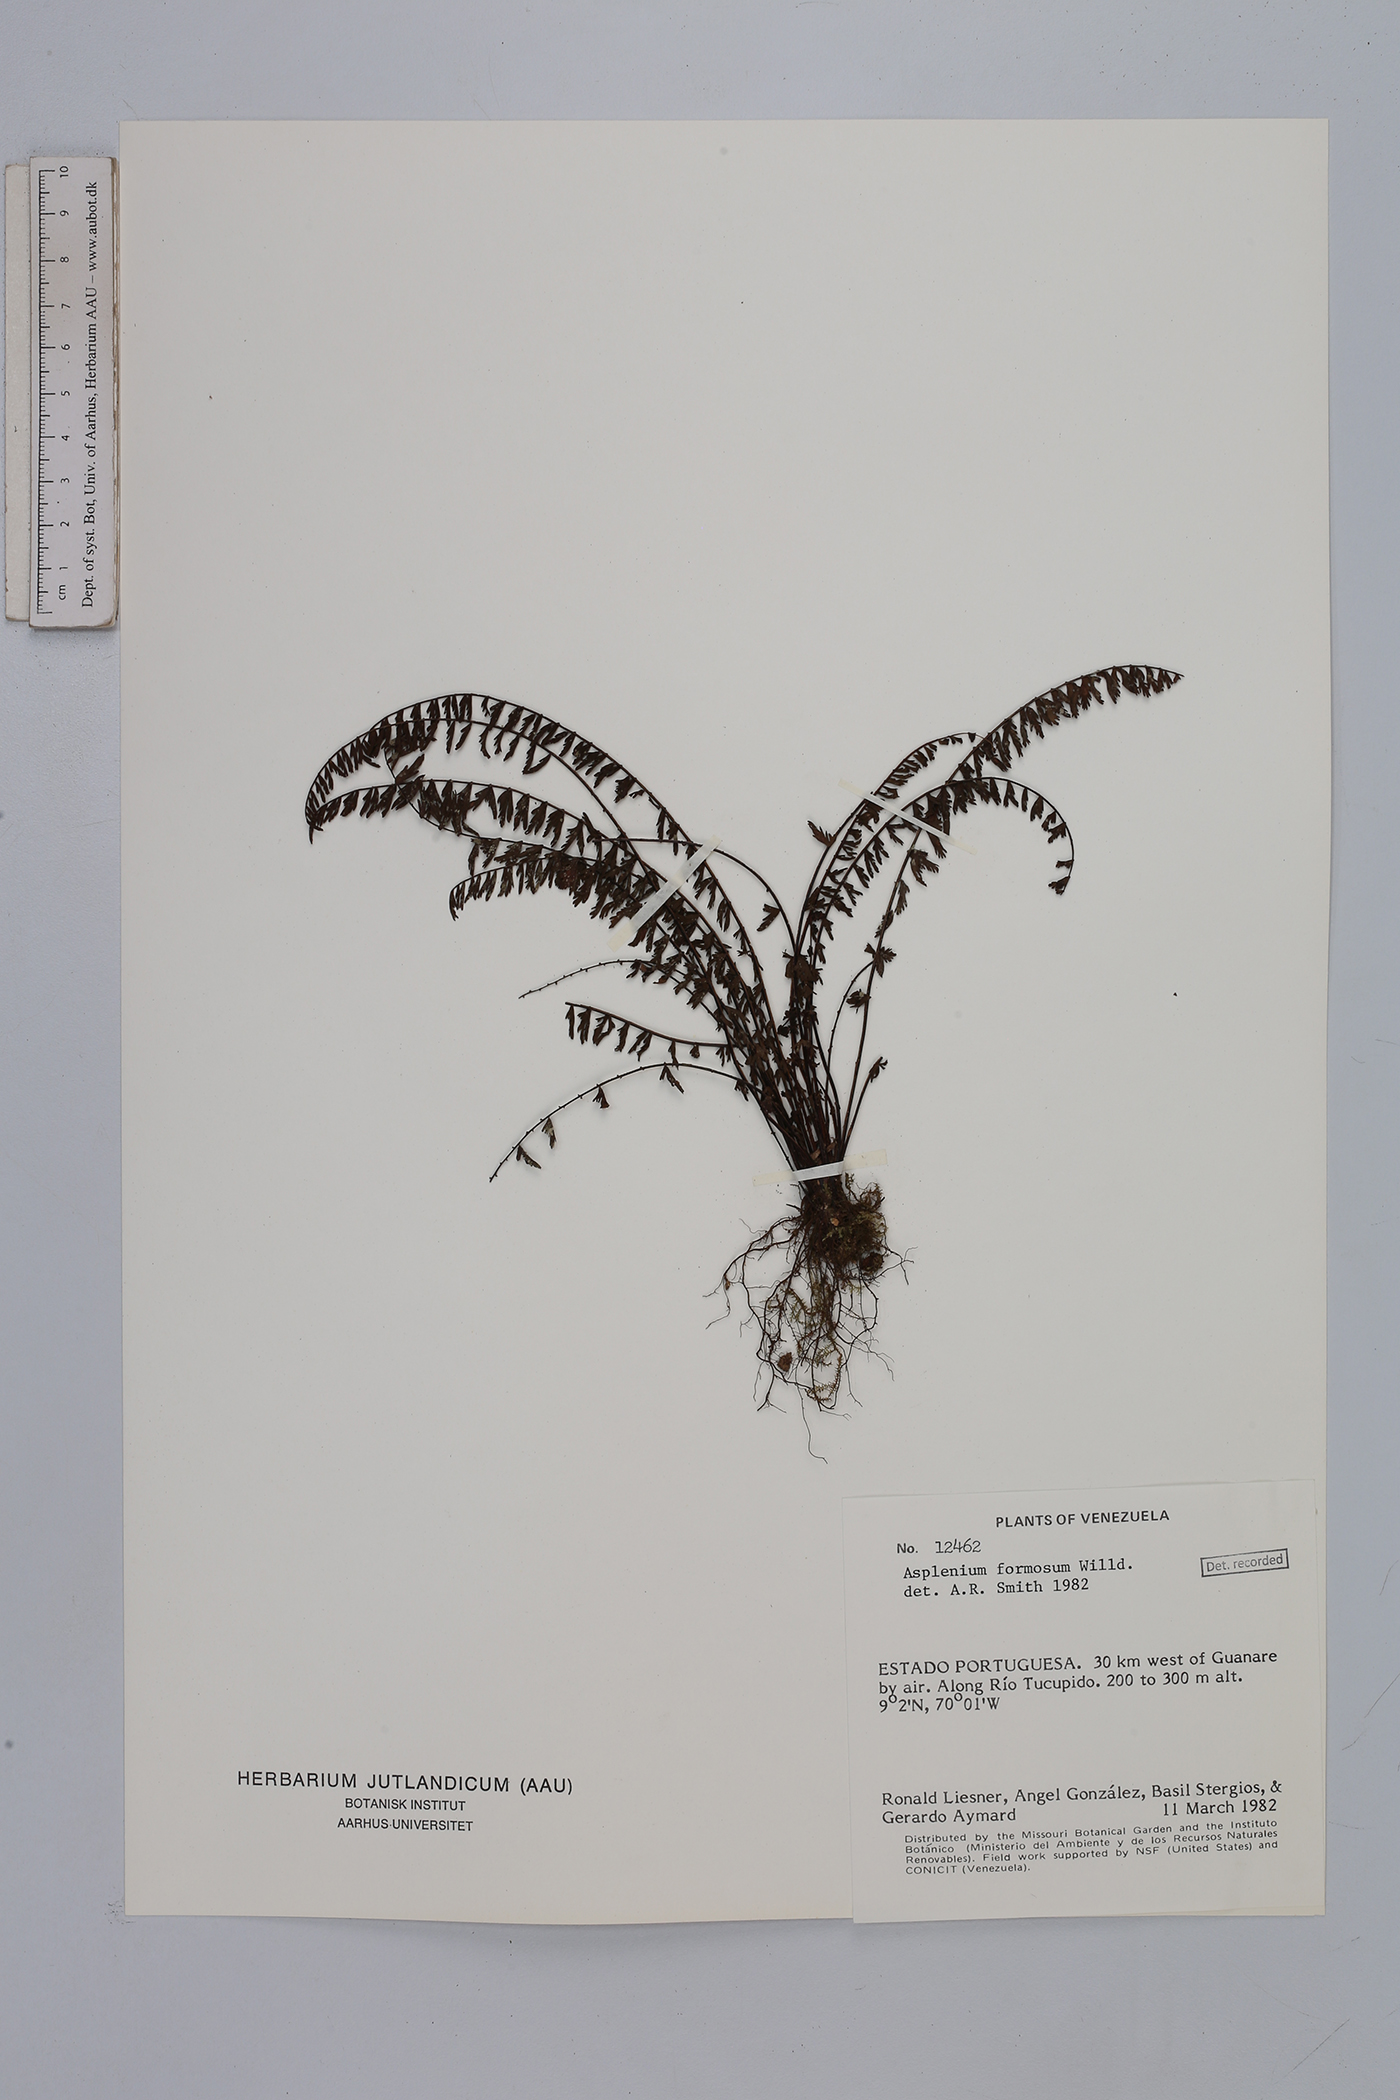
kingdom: Plantae
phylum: Tracheophyta
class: Polypodiopsida
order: Polypodiales
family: Aspleniaceae
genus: Asplenium
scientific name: Asplenium formosum
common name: Showy spleenwort
